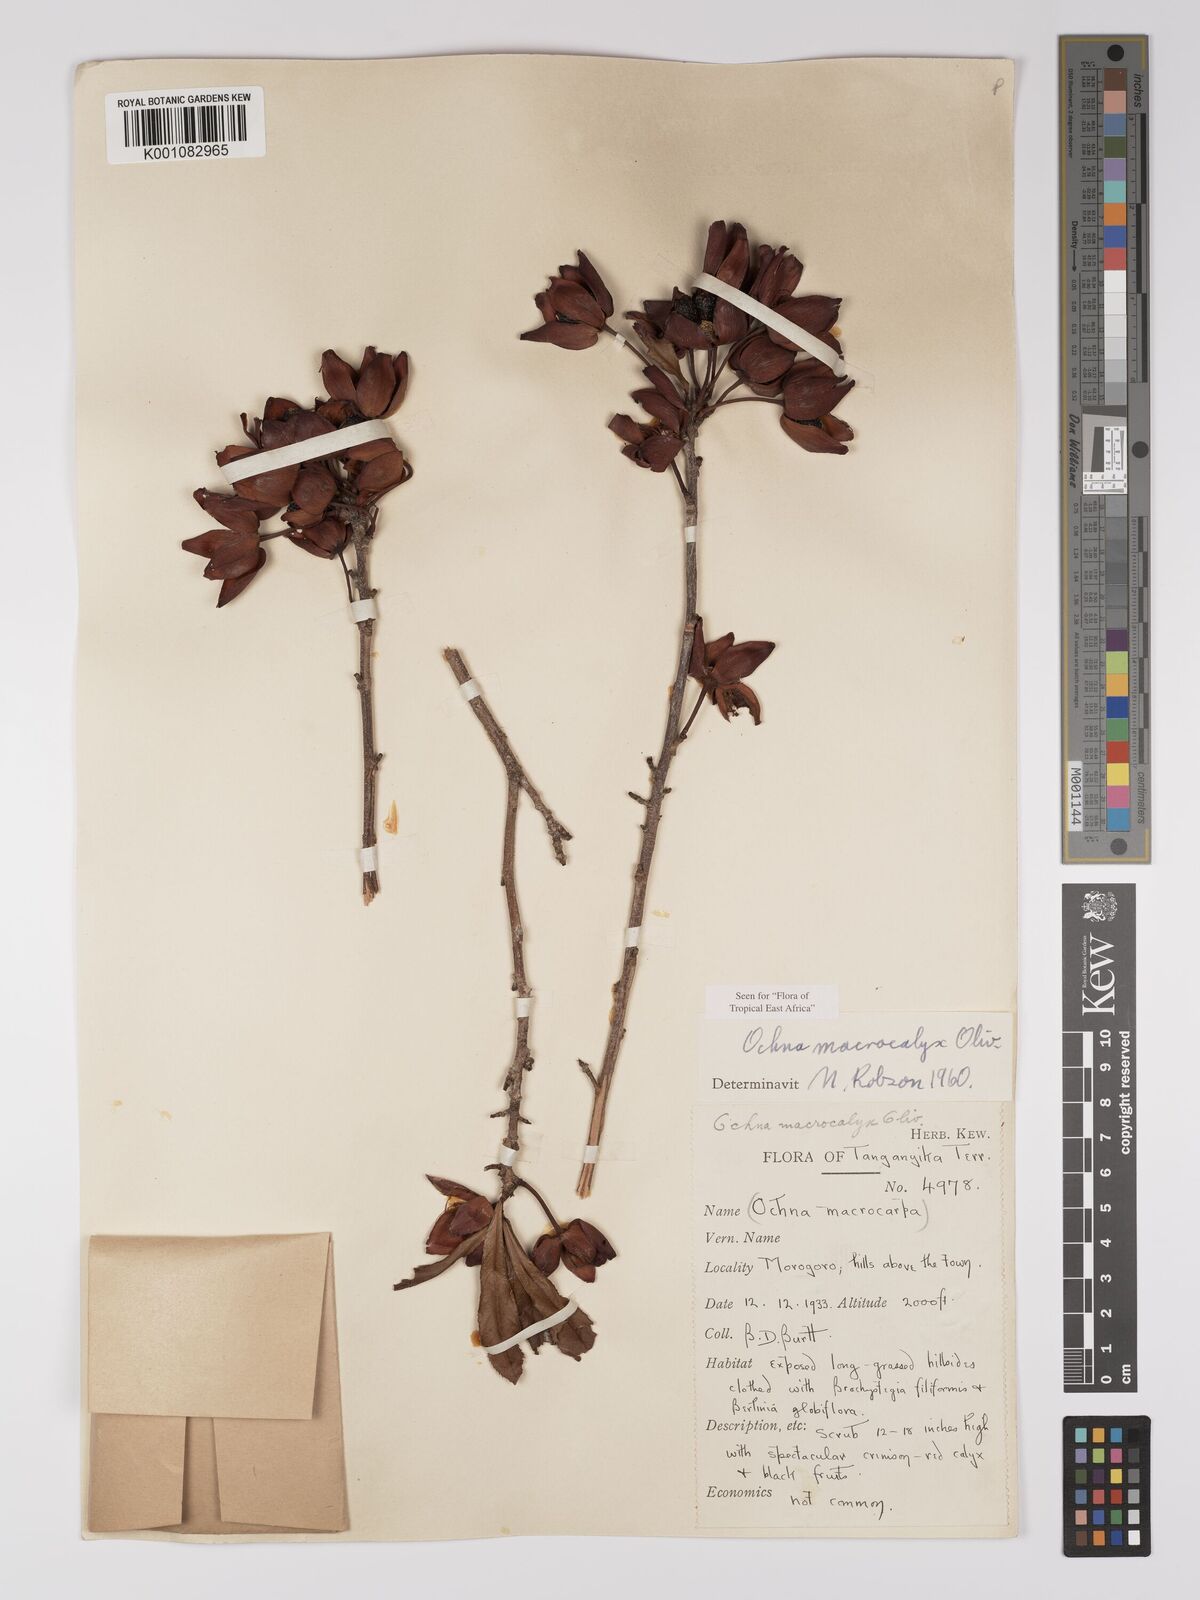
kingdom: Plantae
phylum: Tracheophyta
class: Magnoliopsida
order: Malpighiales
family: Ochnaceae
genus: Ochna
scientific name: Ochna macrocalyx
